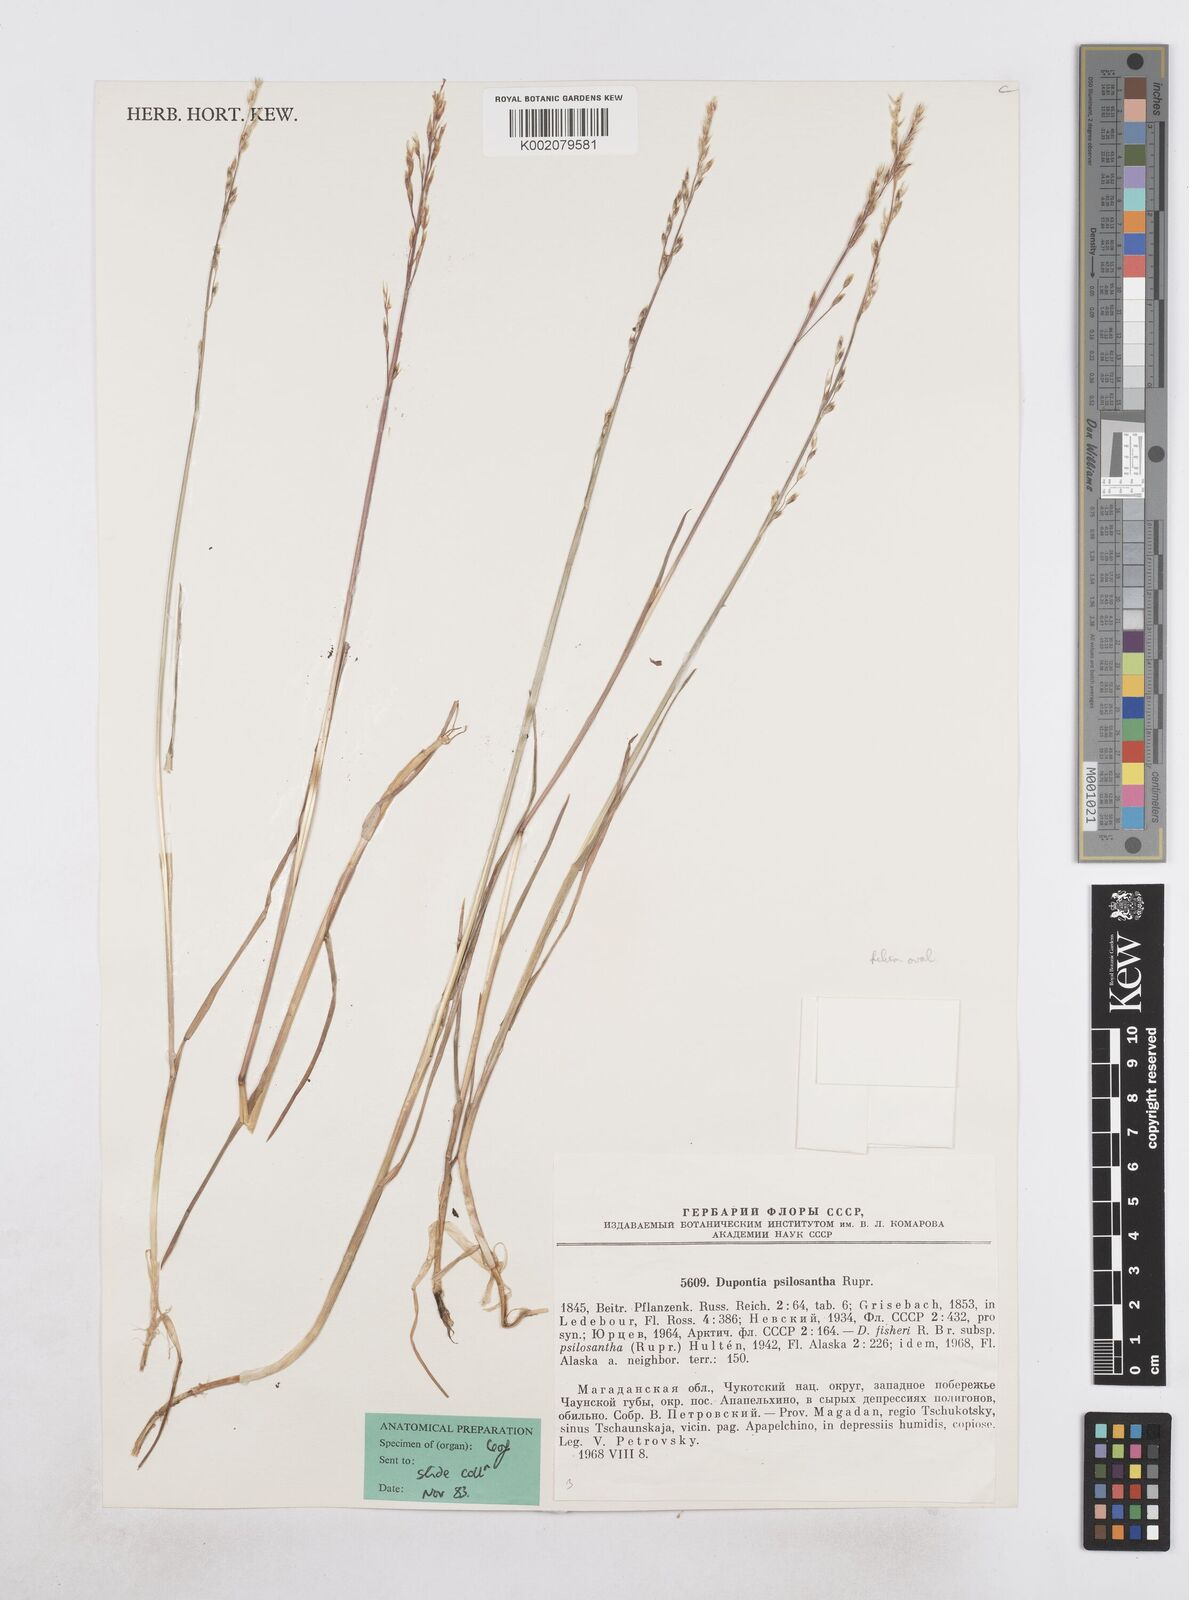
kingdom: Plantae
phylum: Tracheophyta
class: Liliopsida
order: Poales
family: Poaceae
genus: Dupontia
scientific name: Dupontia fisheri
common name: Tundra grass
